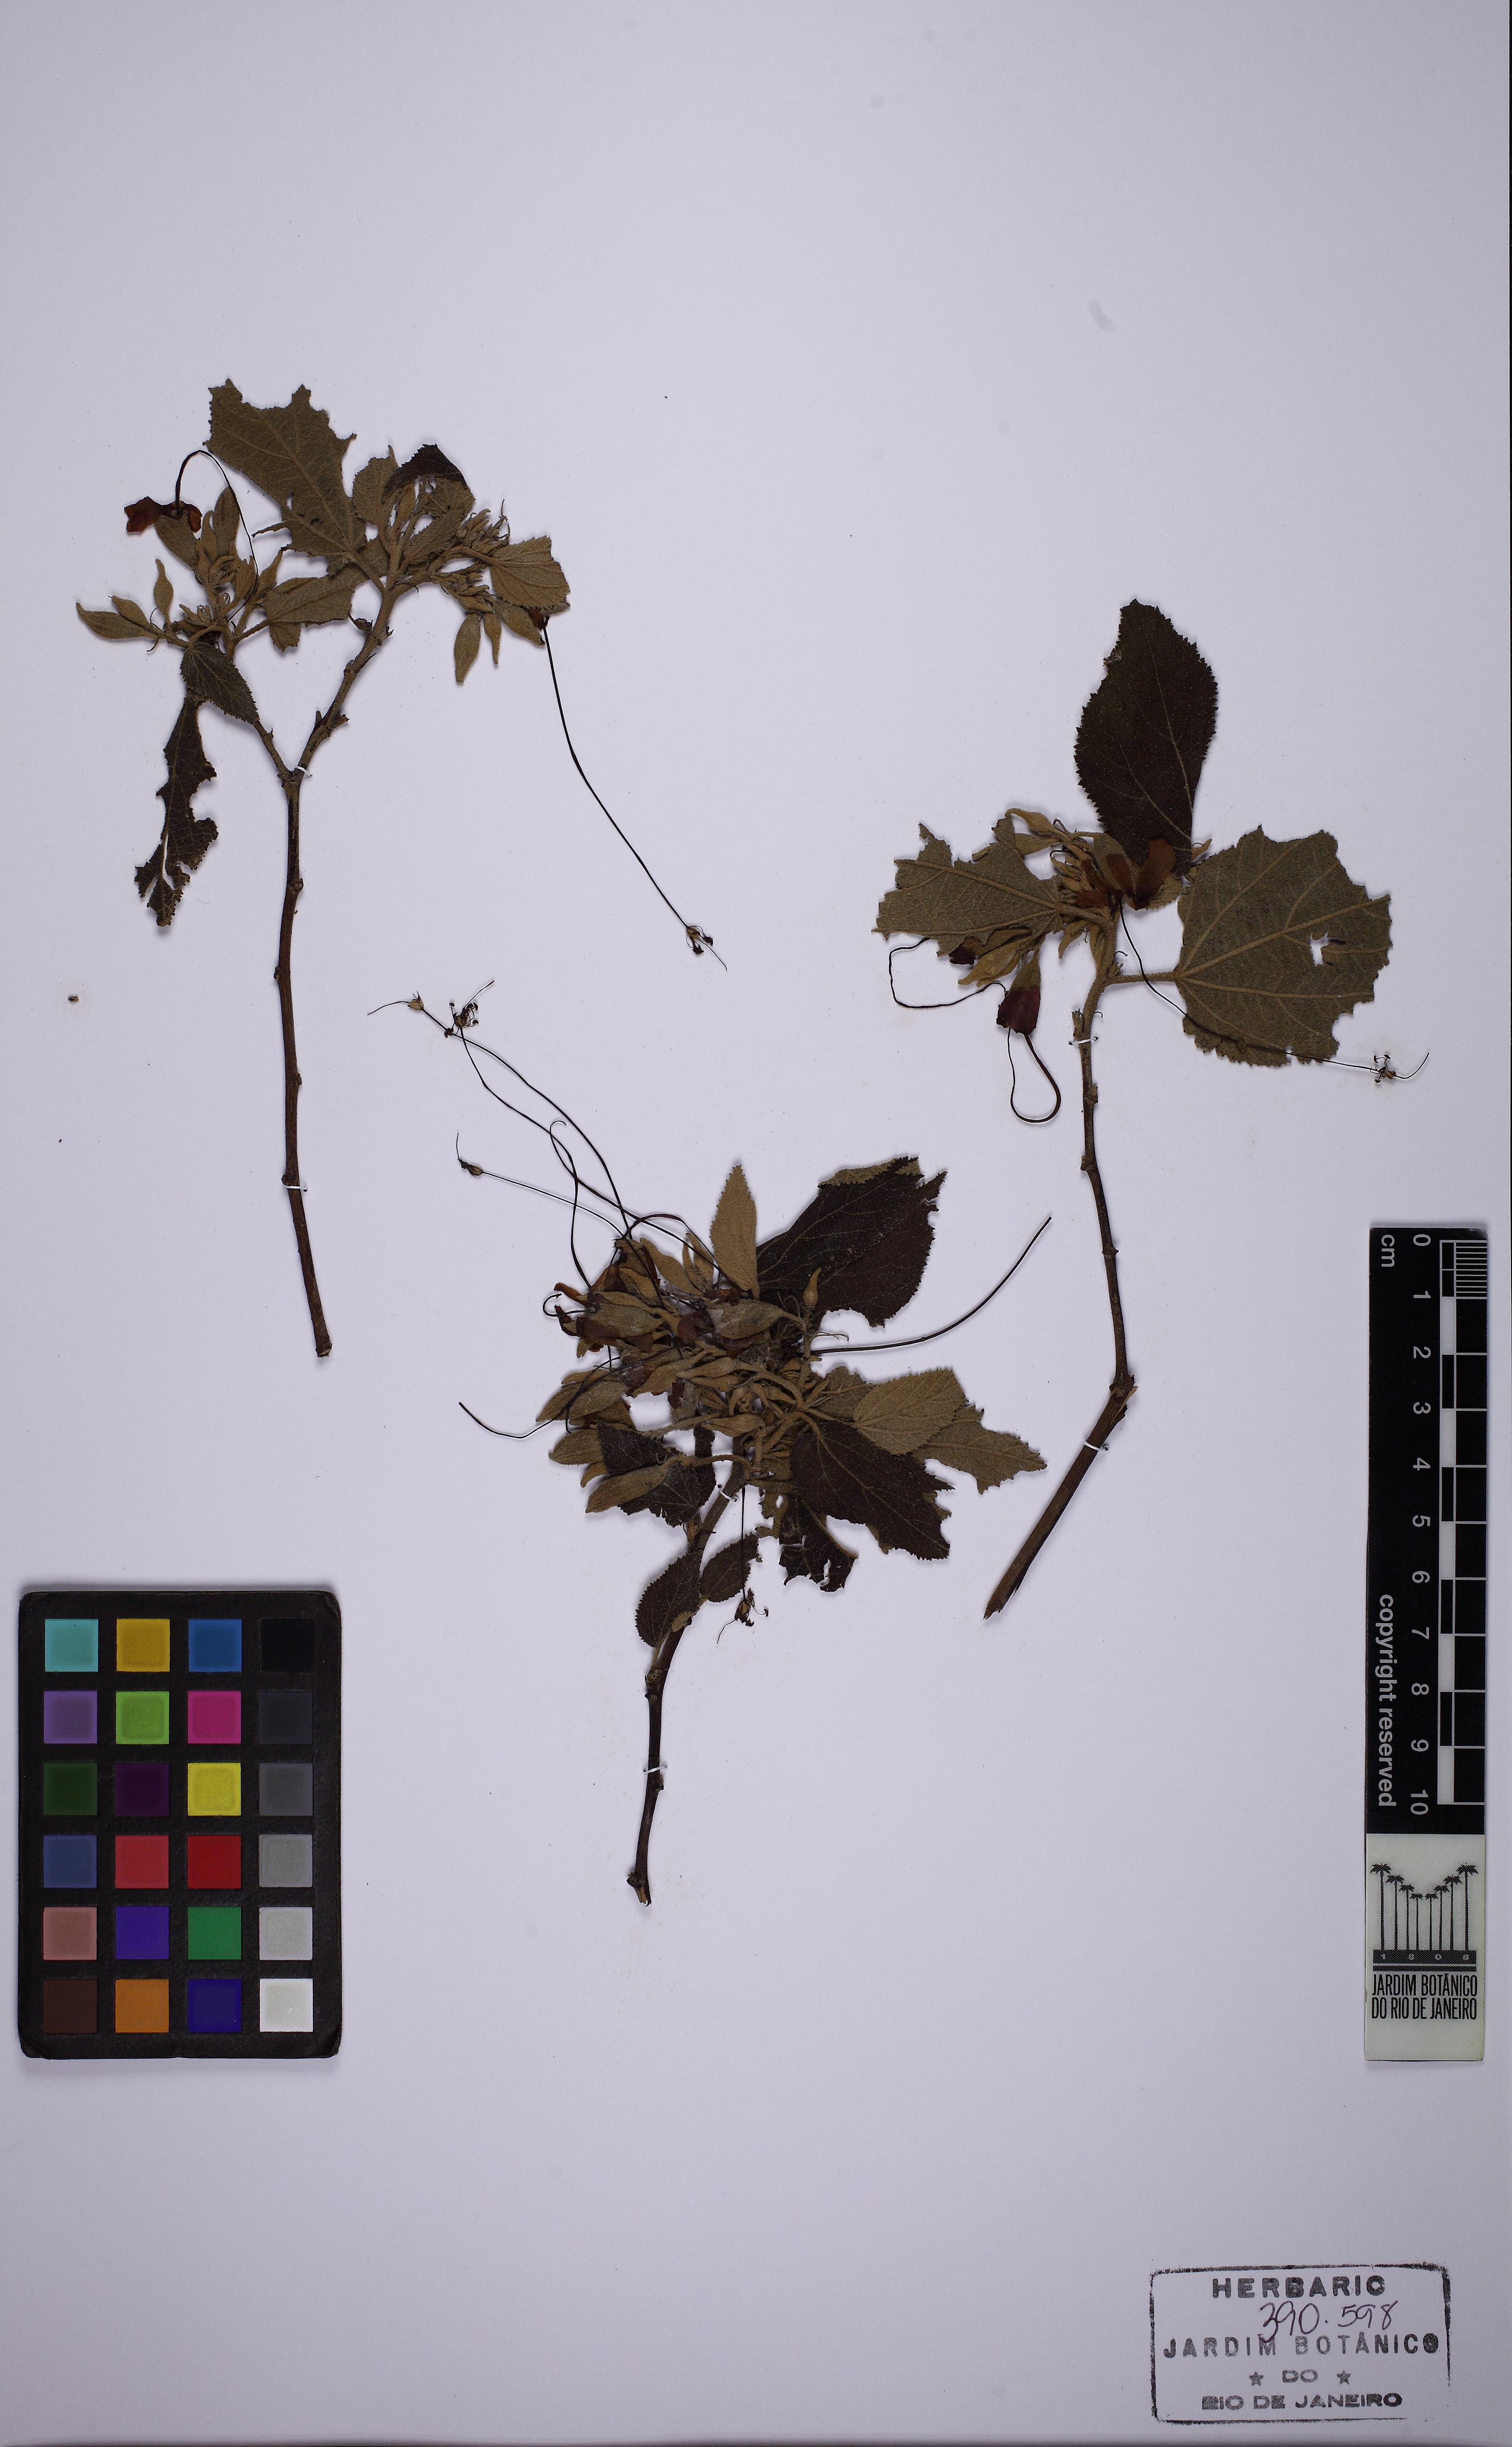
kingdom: Plantae
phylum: Tracheophyta
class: Magnoliopsida
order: Malvales
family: Malvaceae
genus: Helicteres
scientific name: Helicteres ovata
